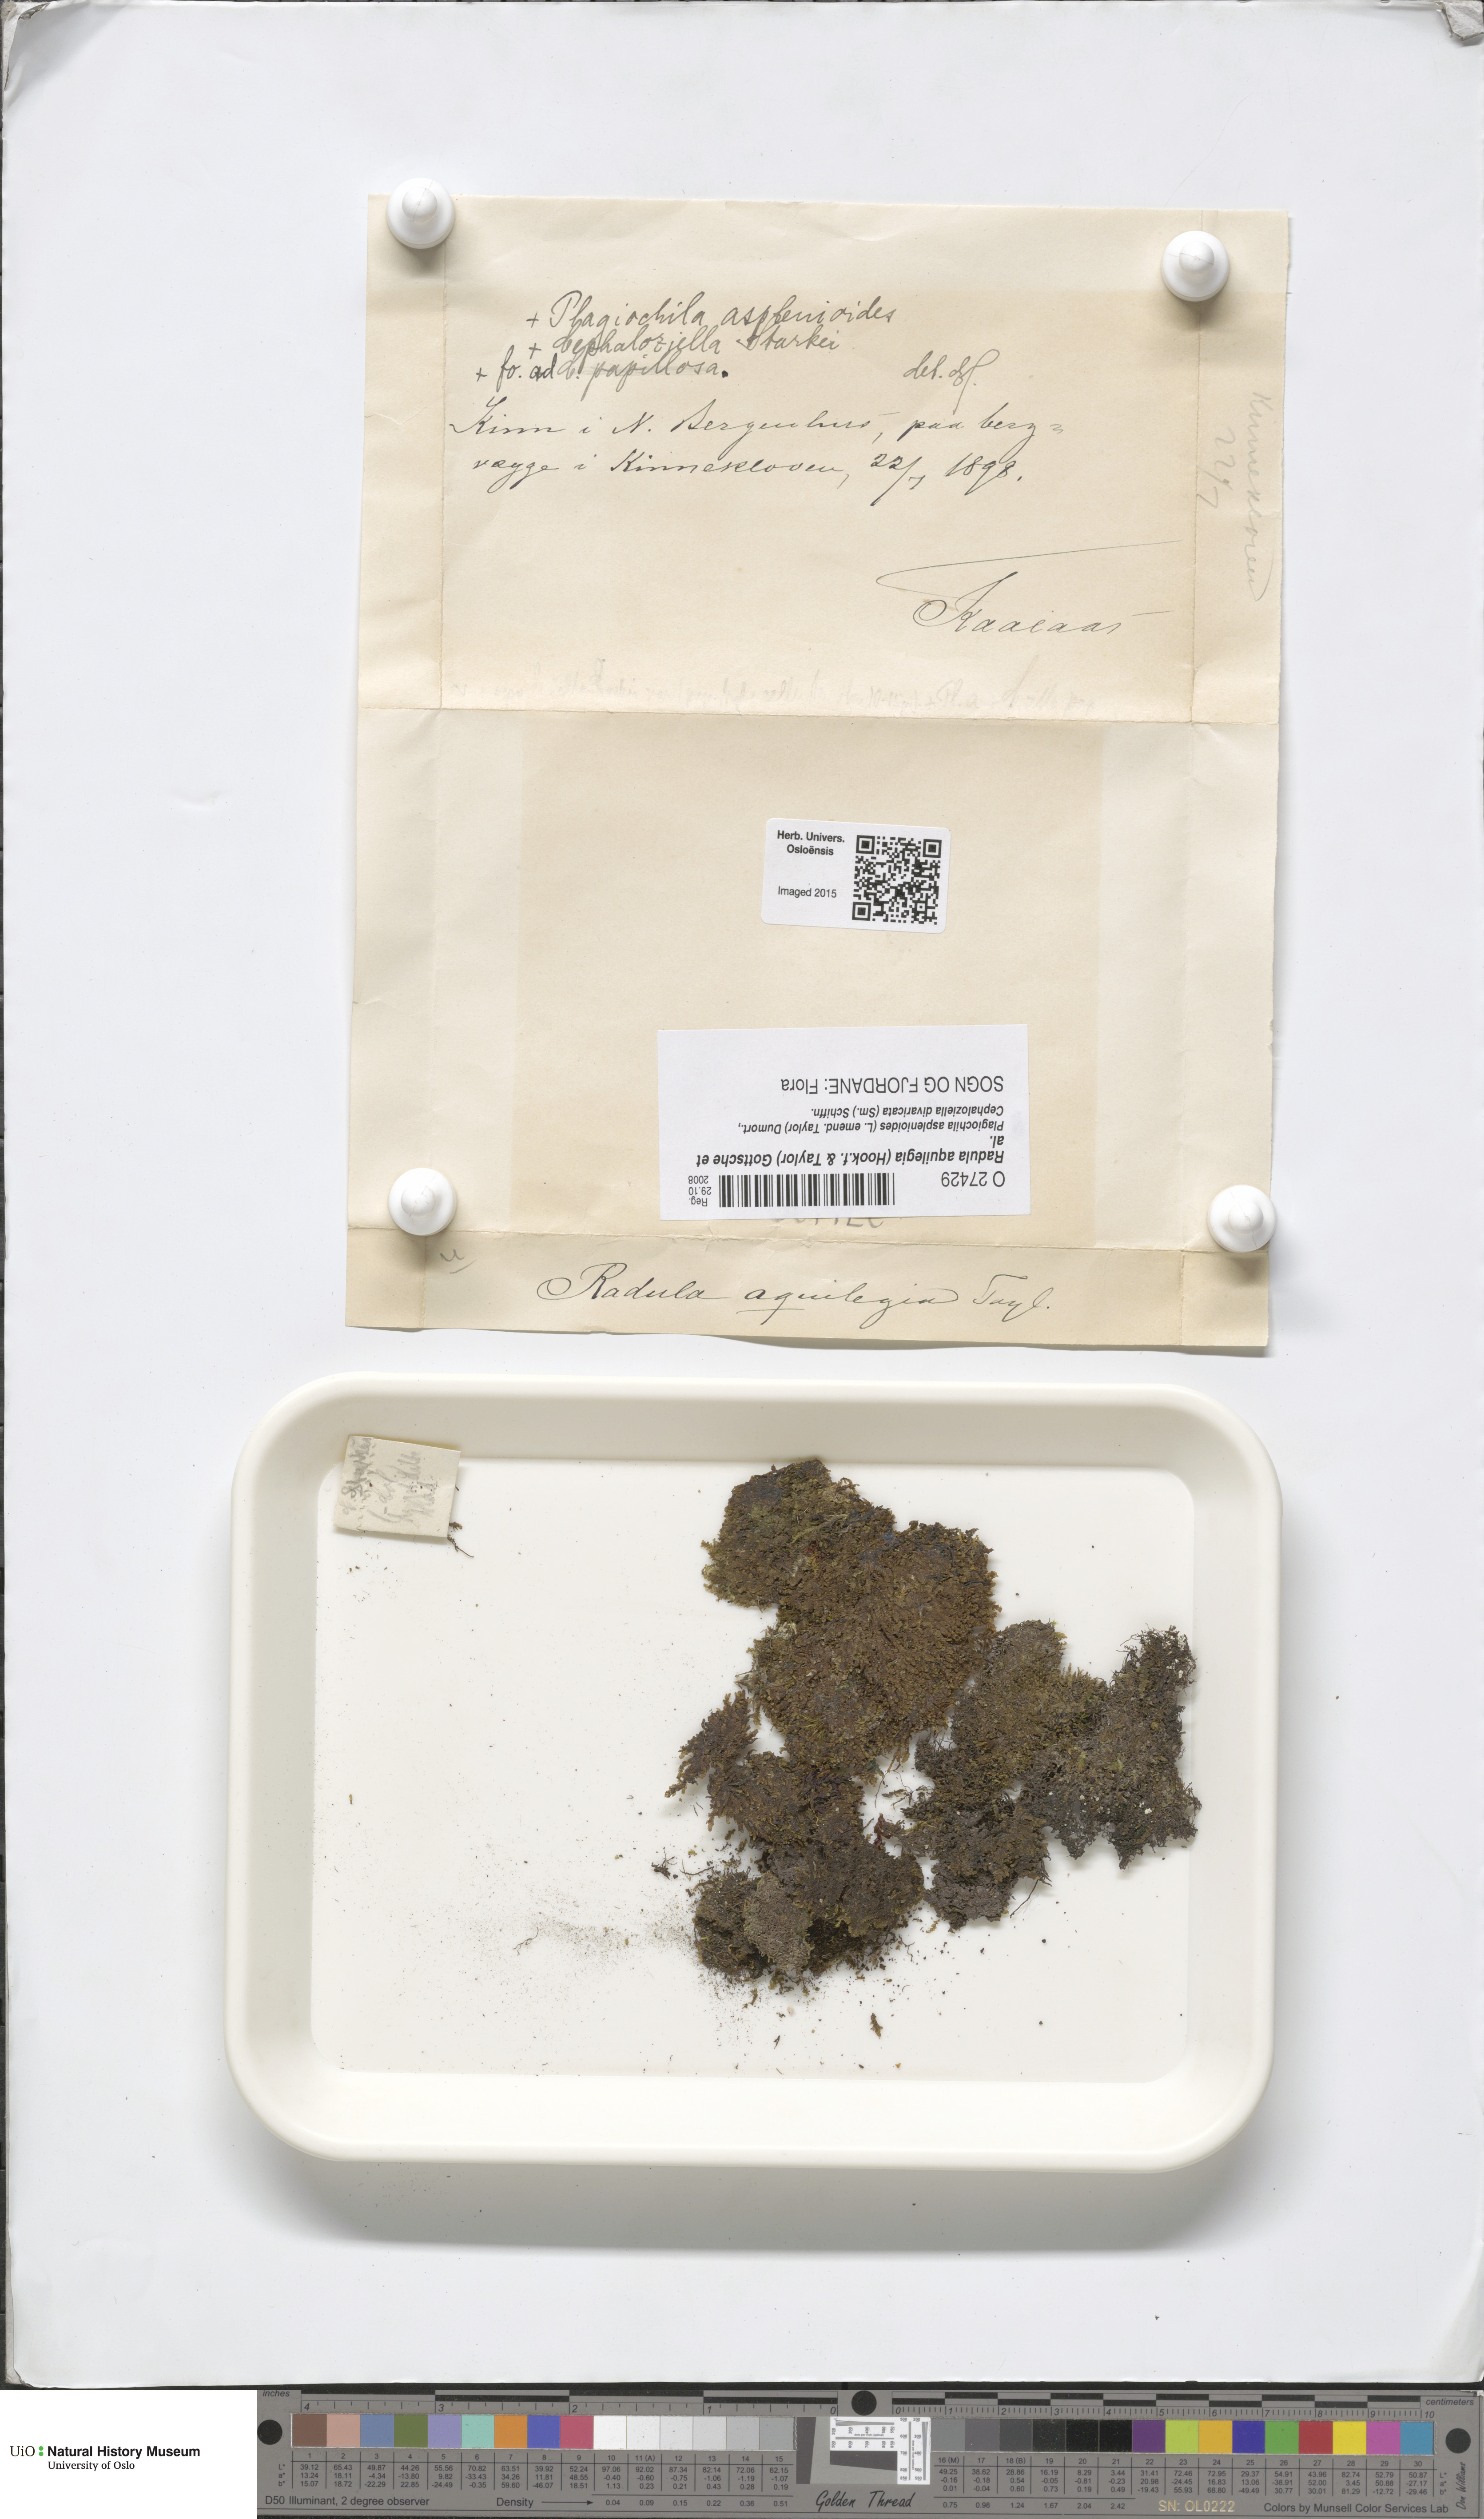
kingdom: Plantae
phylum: Marchantiophyta
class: Jungermanniopsida
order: Porellales
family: Radulaceae
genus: Radula
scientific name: Radula aquilegia
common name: Brown scalewort
